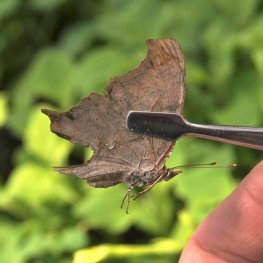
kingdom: Animalia
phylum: Arthropoda
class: Insecta
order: Lepidoptera
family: Nymphalidae
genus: Polygonia
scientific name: Polygonia interrogationis
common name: Question Mark
